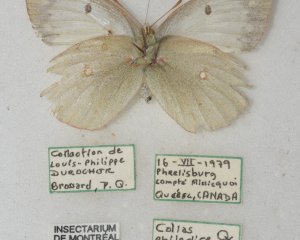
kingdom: Animalia
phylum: Arthropoda
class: Insecta
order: Lepidoptera
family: Pieridae
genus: Colias
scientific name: Colias philodice
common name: Clouded Sulphur
